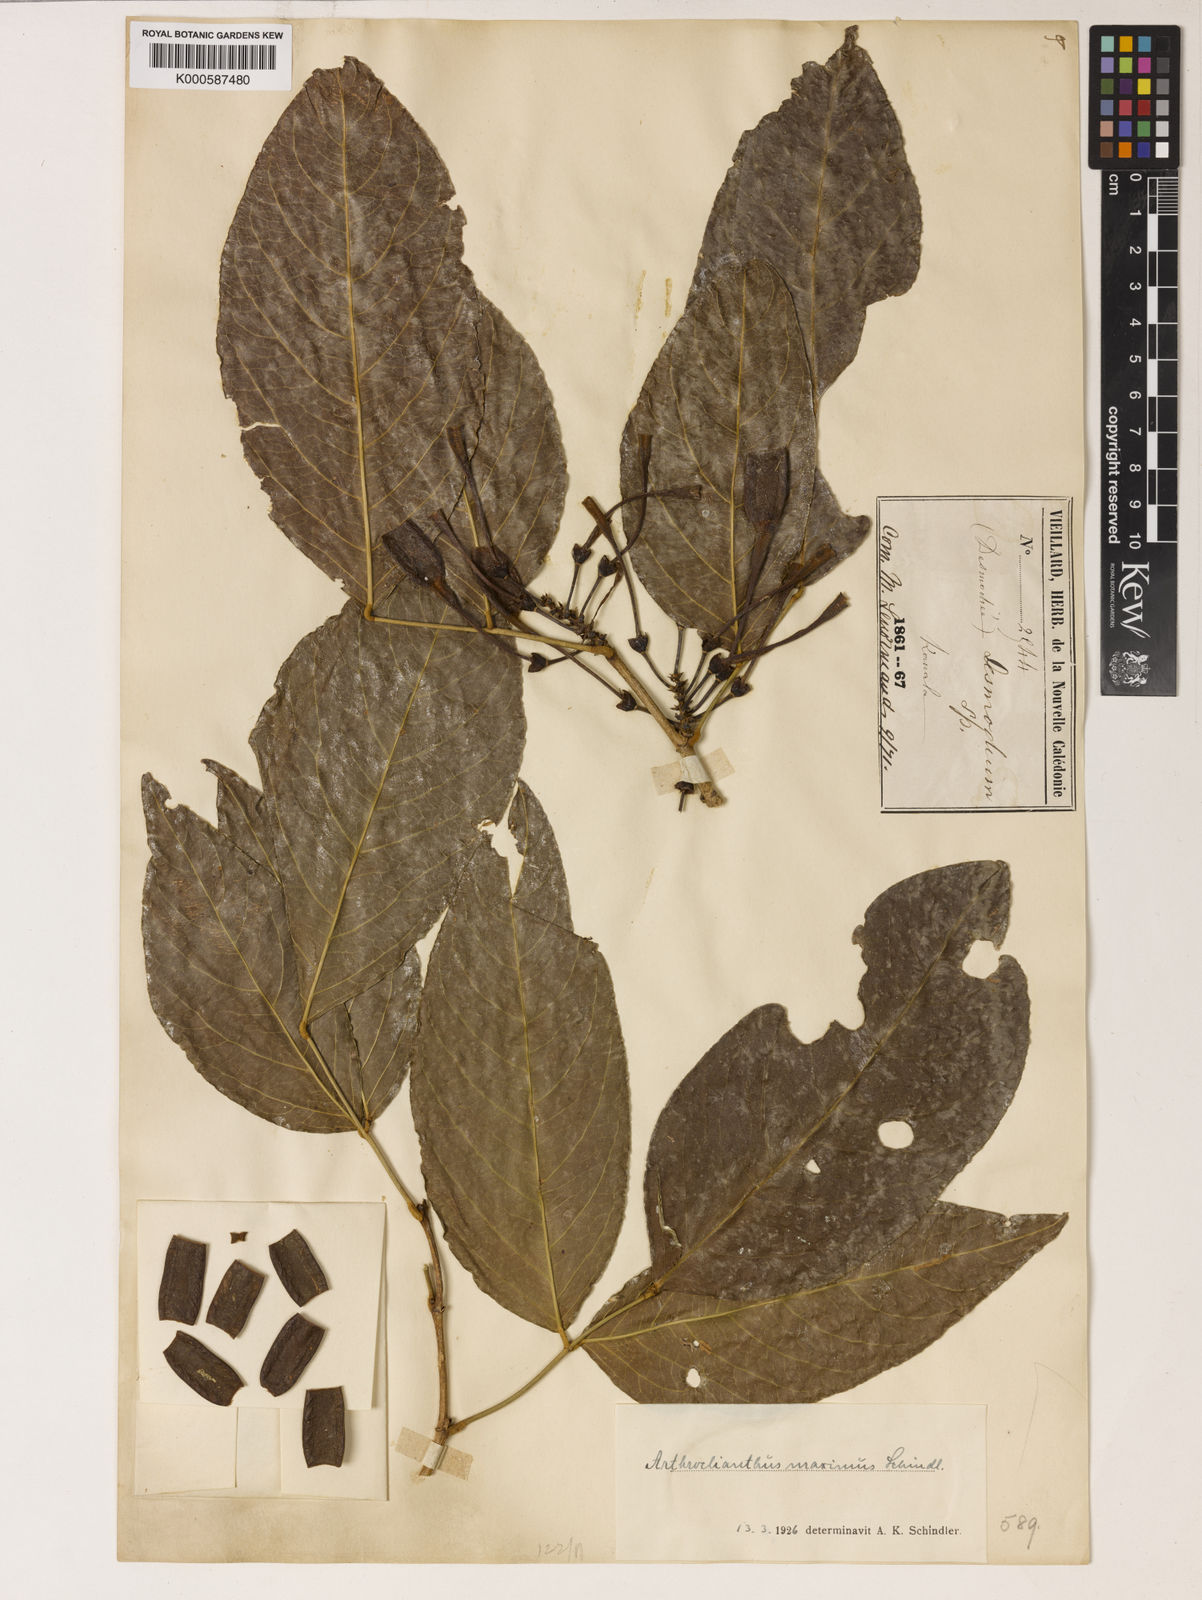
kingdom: Plantae
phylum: Tracheophyta
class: Magnoliopsida
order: Fabales
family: Fabaceae
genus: Arthroclianthus
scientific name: Arthroclianthus maximus
